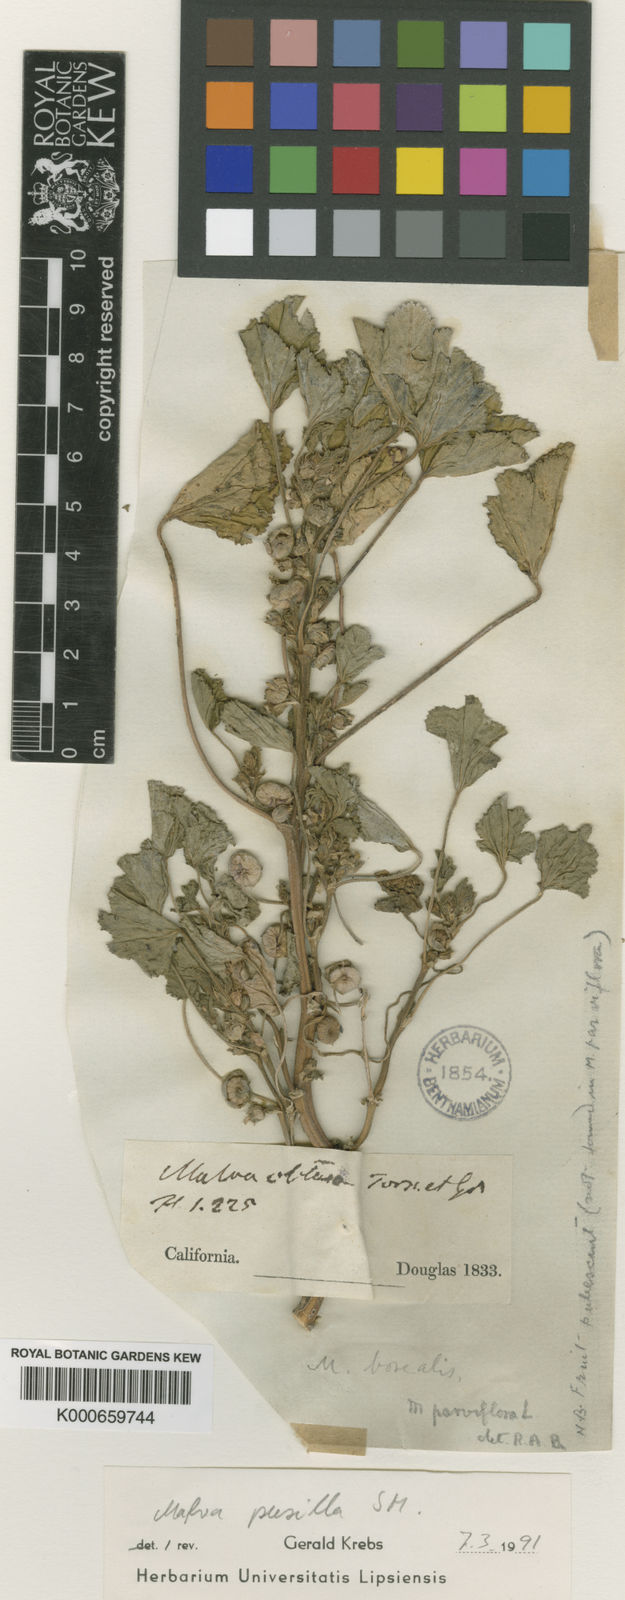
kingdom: Plantae
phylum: Tracheophyta
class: Magnoliopsida
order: Malvales
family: Malvaceae
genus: Malva
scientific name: Malva parviflora
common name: Least mallow
